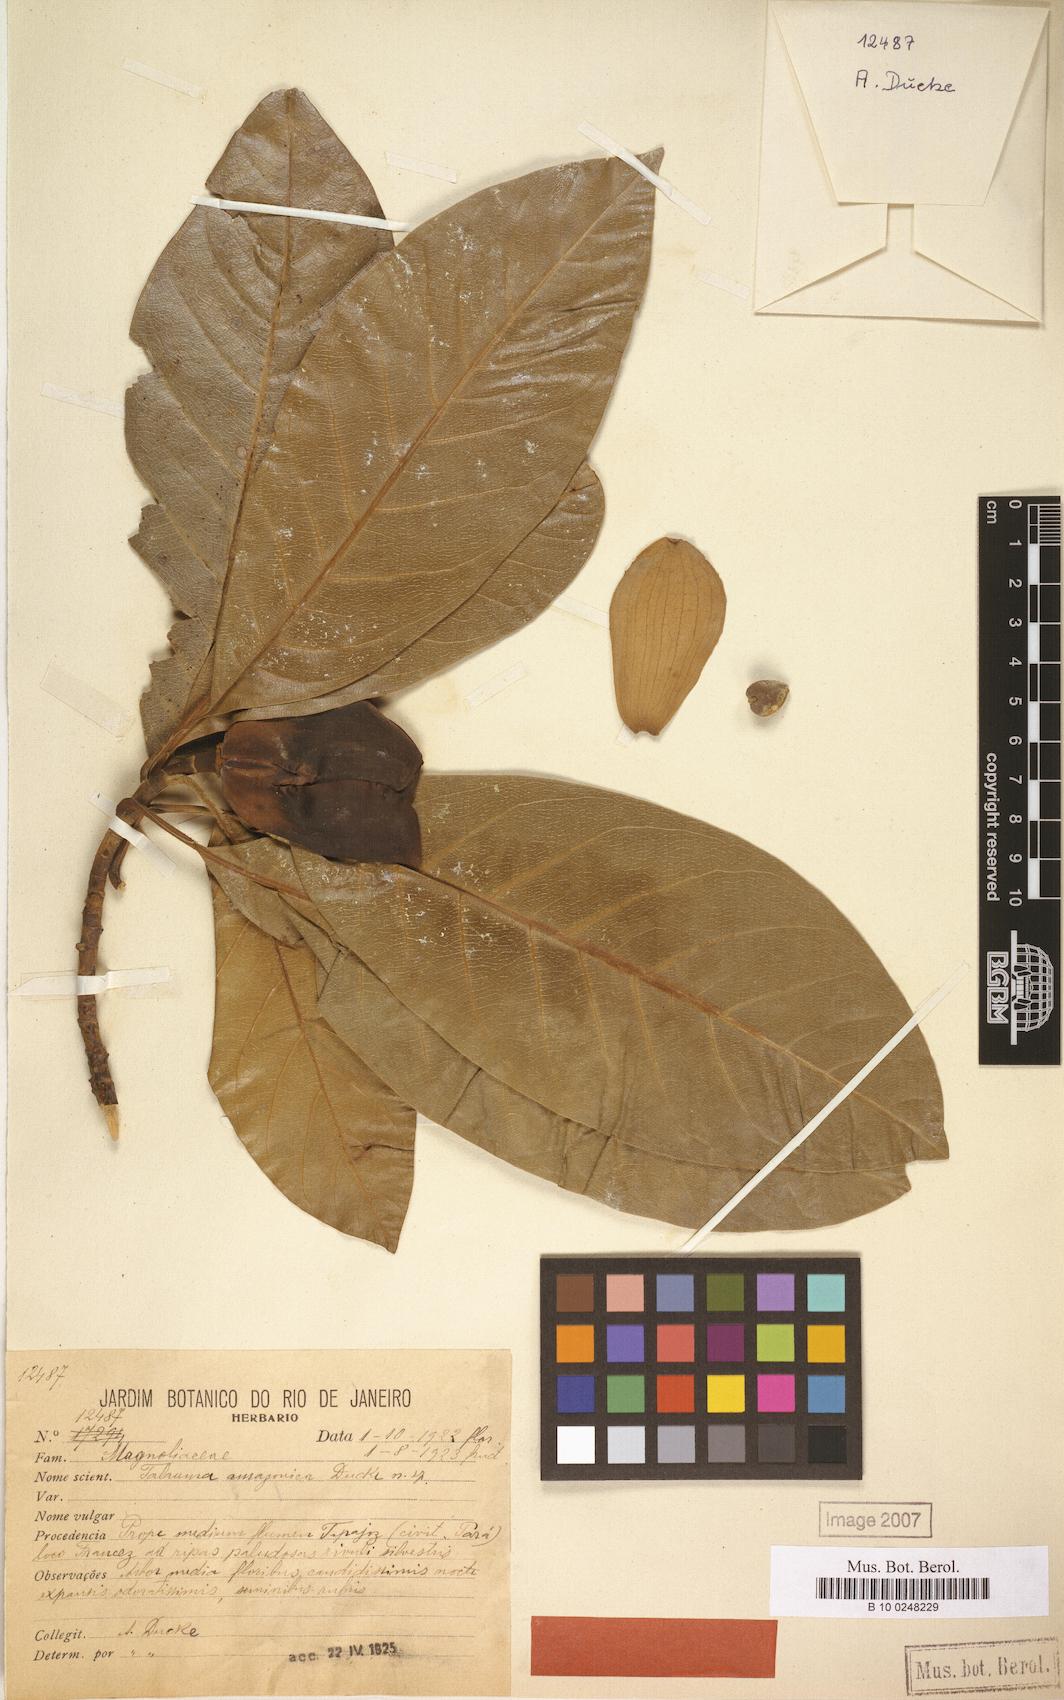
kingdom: Plantae
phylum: Tracheophyta
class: Magnoliopsida
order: Magnoliales
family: Magnoliaceae
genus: Magnolia
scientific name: Magnolia amazonica
